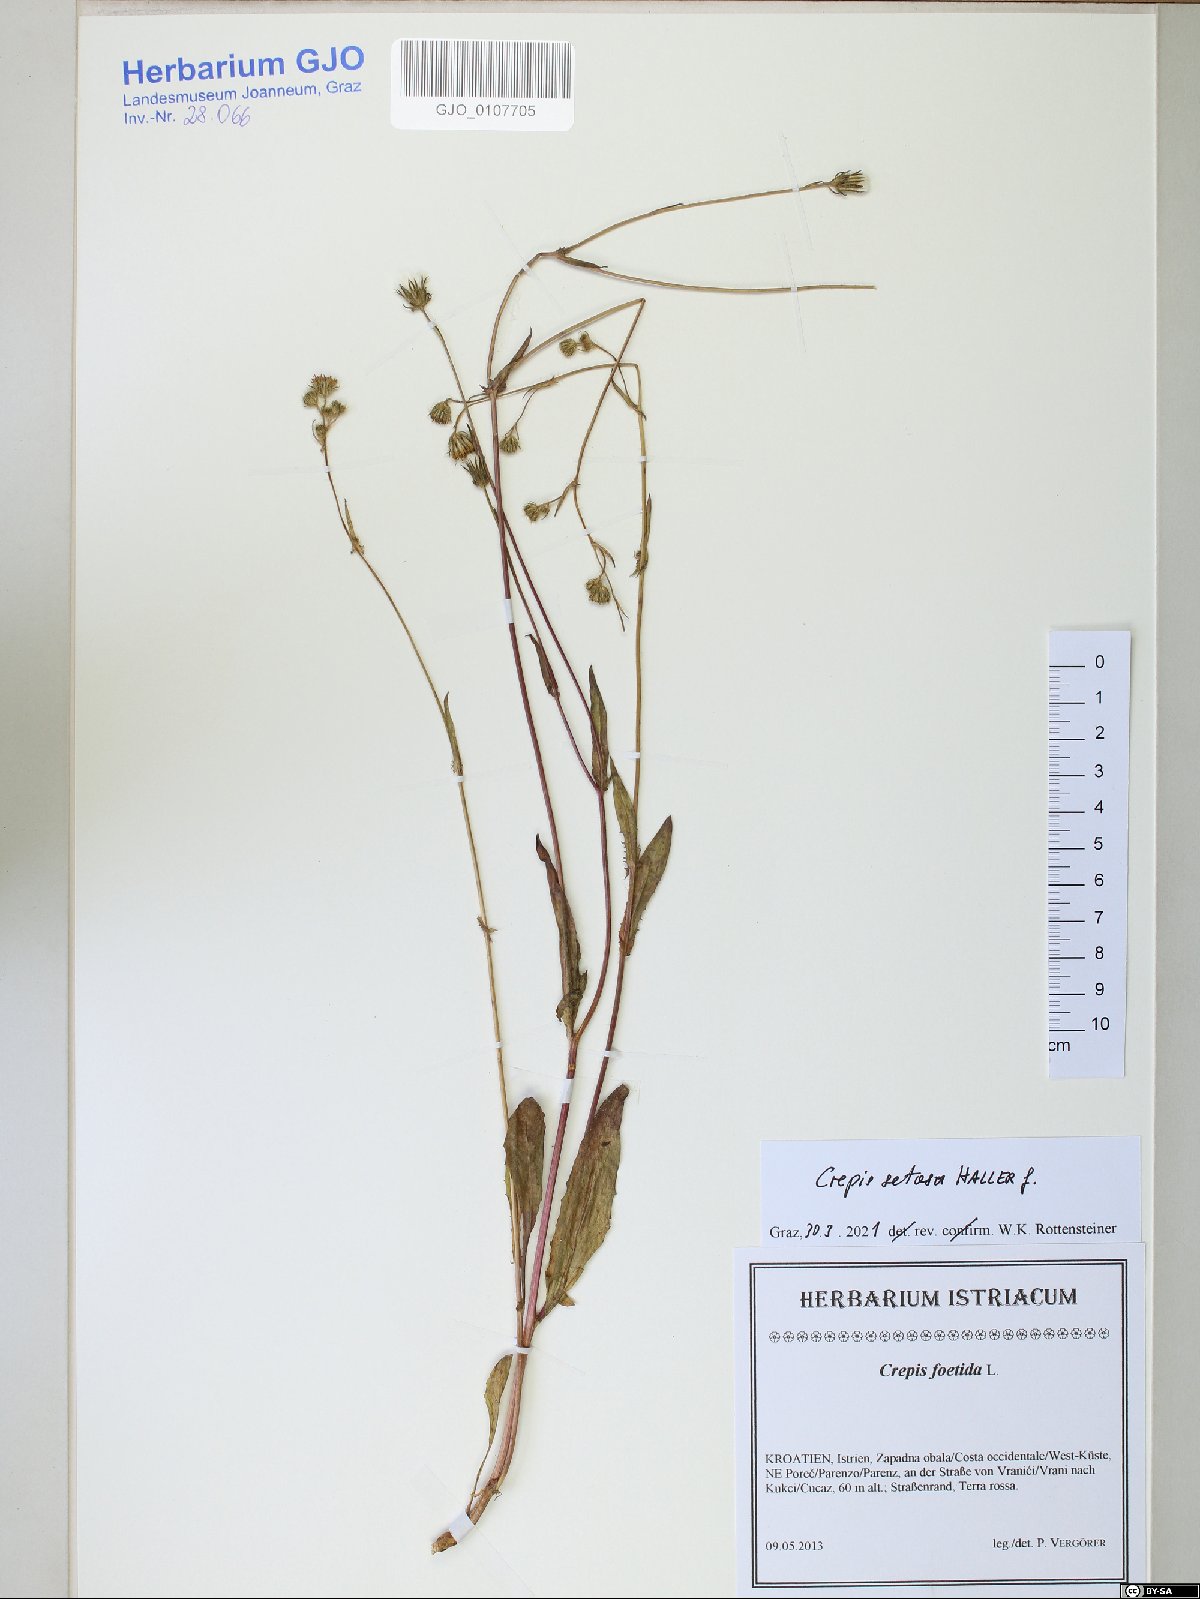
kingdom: Plantae
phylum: Tracheophyta
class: Magnoliopsida
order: Asterales
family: Asteraceae
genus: Crepis
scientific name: Crepis setosa
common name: Bristly hawk's-beard
